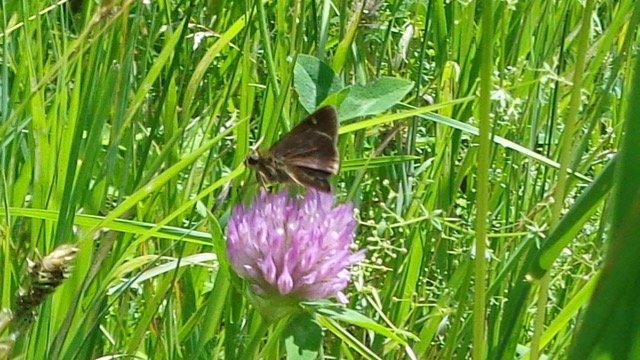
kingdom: Animalia
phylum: Arthropoda
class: Insecta
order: Lepidoptera
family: Hesperiidae
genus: Vernia
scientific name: Vernia verna
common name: Little Glassywing
